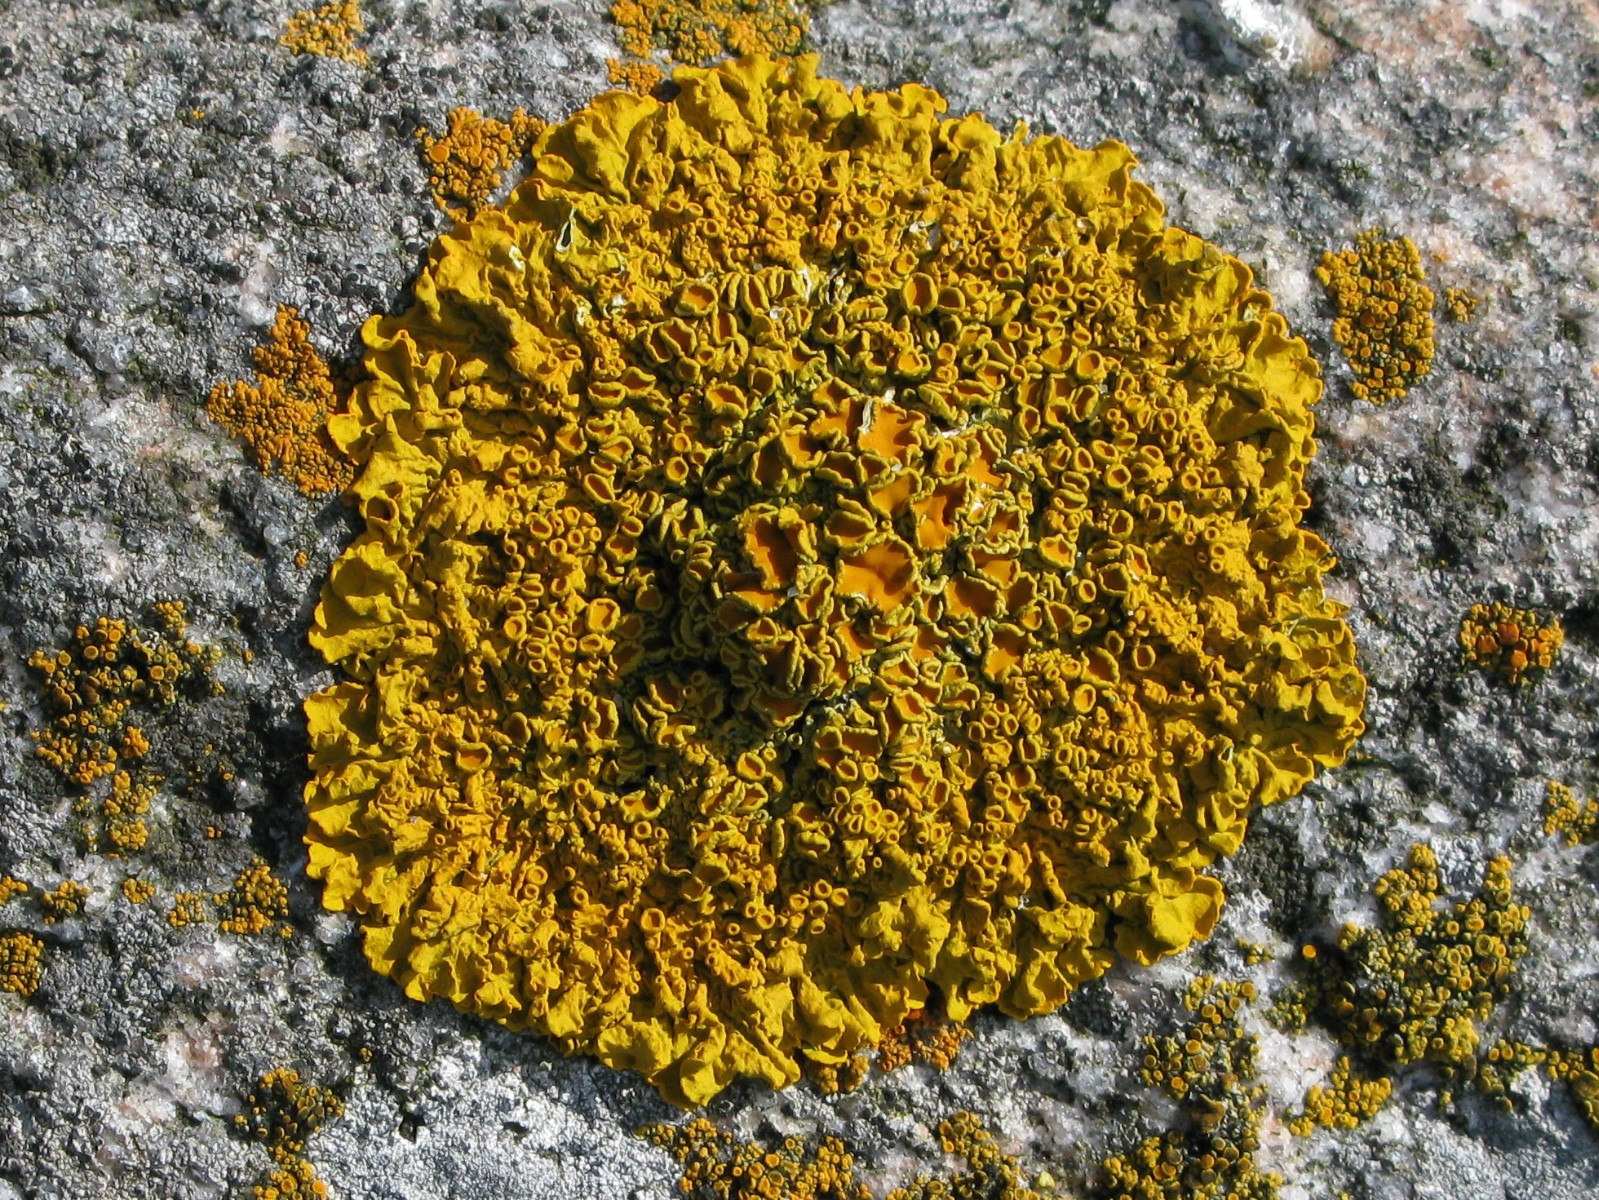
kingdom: Fungi
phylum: Ascomycota
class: Lecanoromycetes
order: Teloschistales
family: Teloschistaceae
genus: Xanthoria
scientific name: Xanthoria parietina
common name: almindelig væggelav
